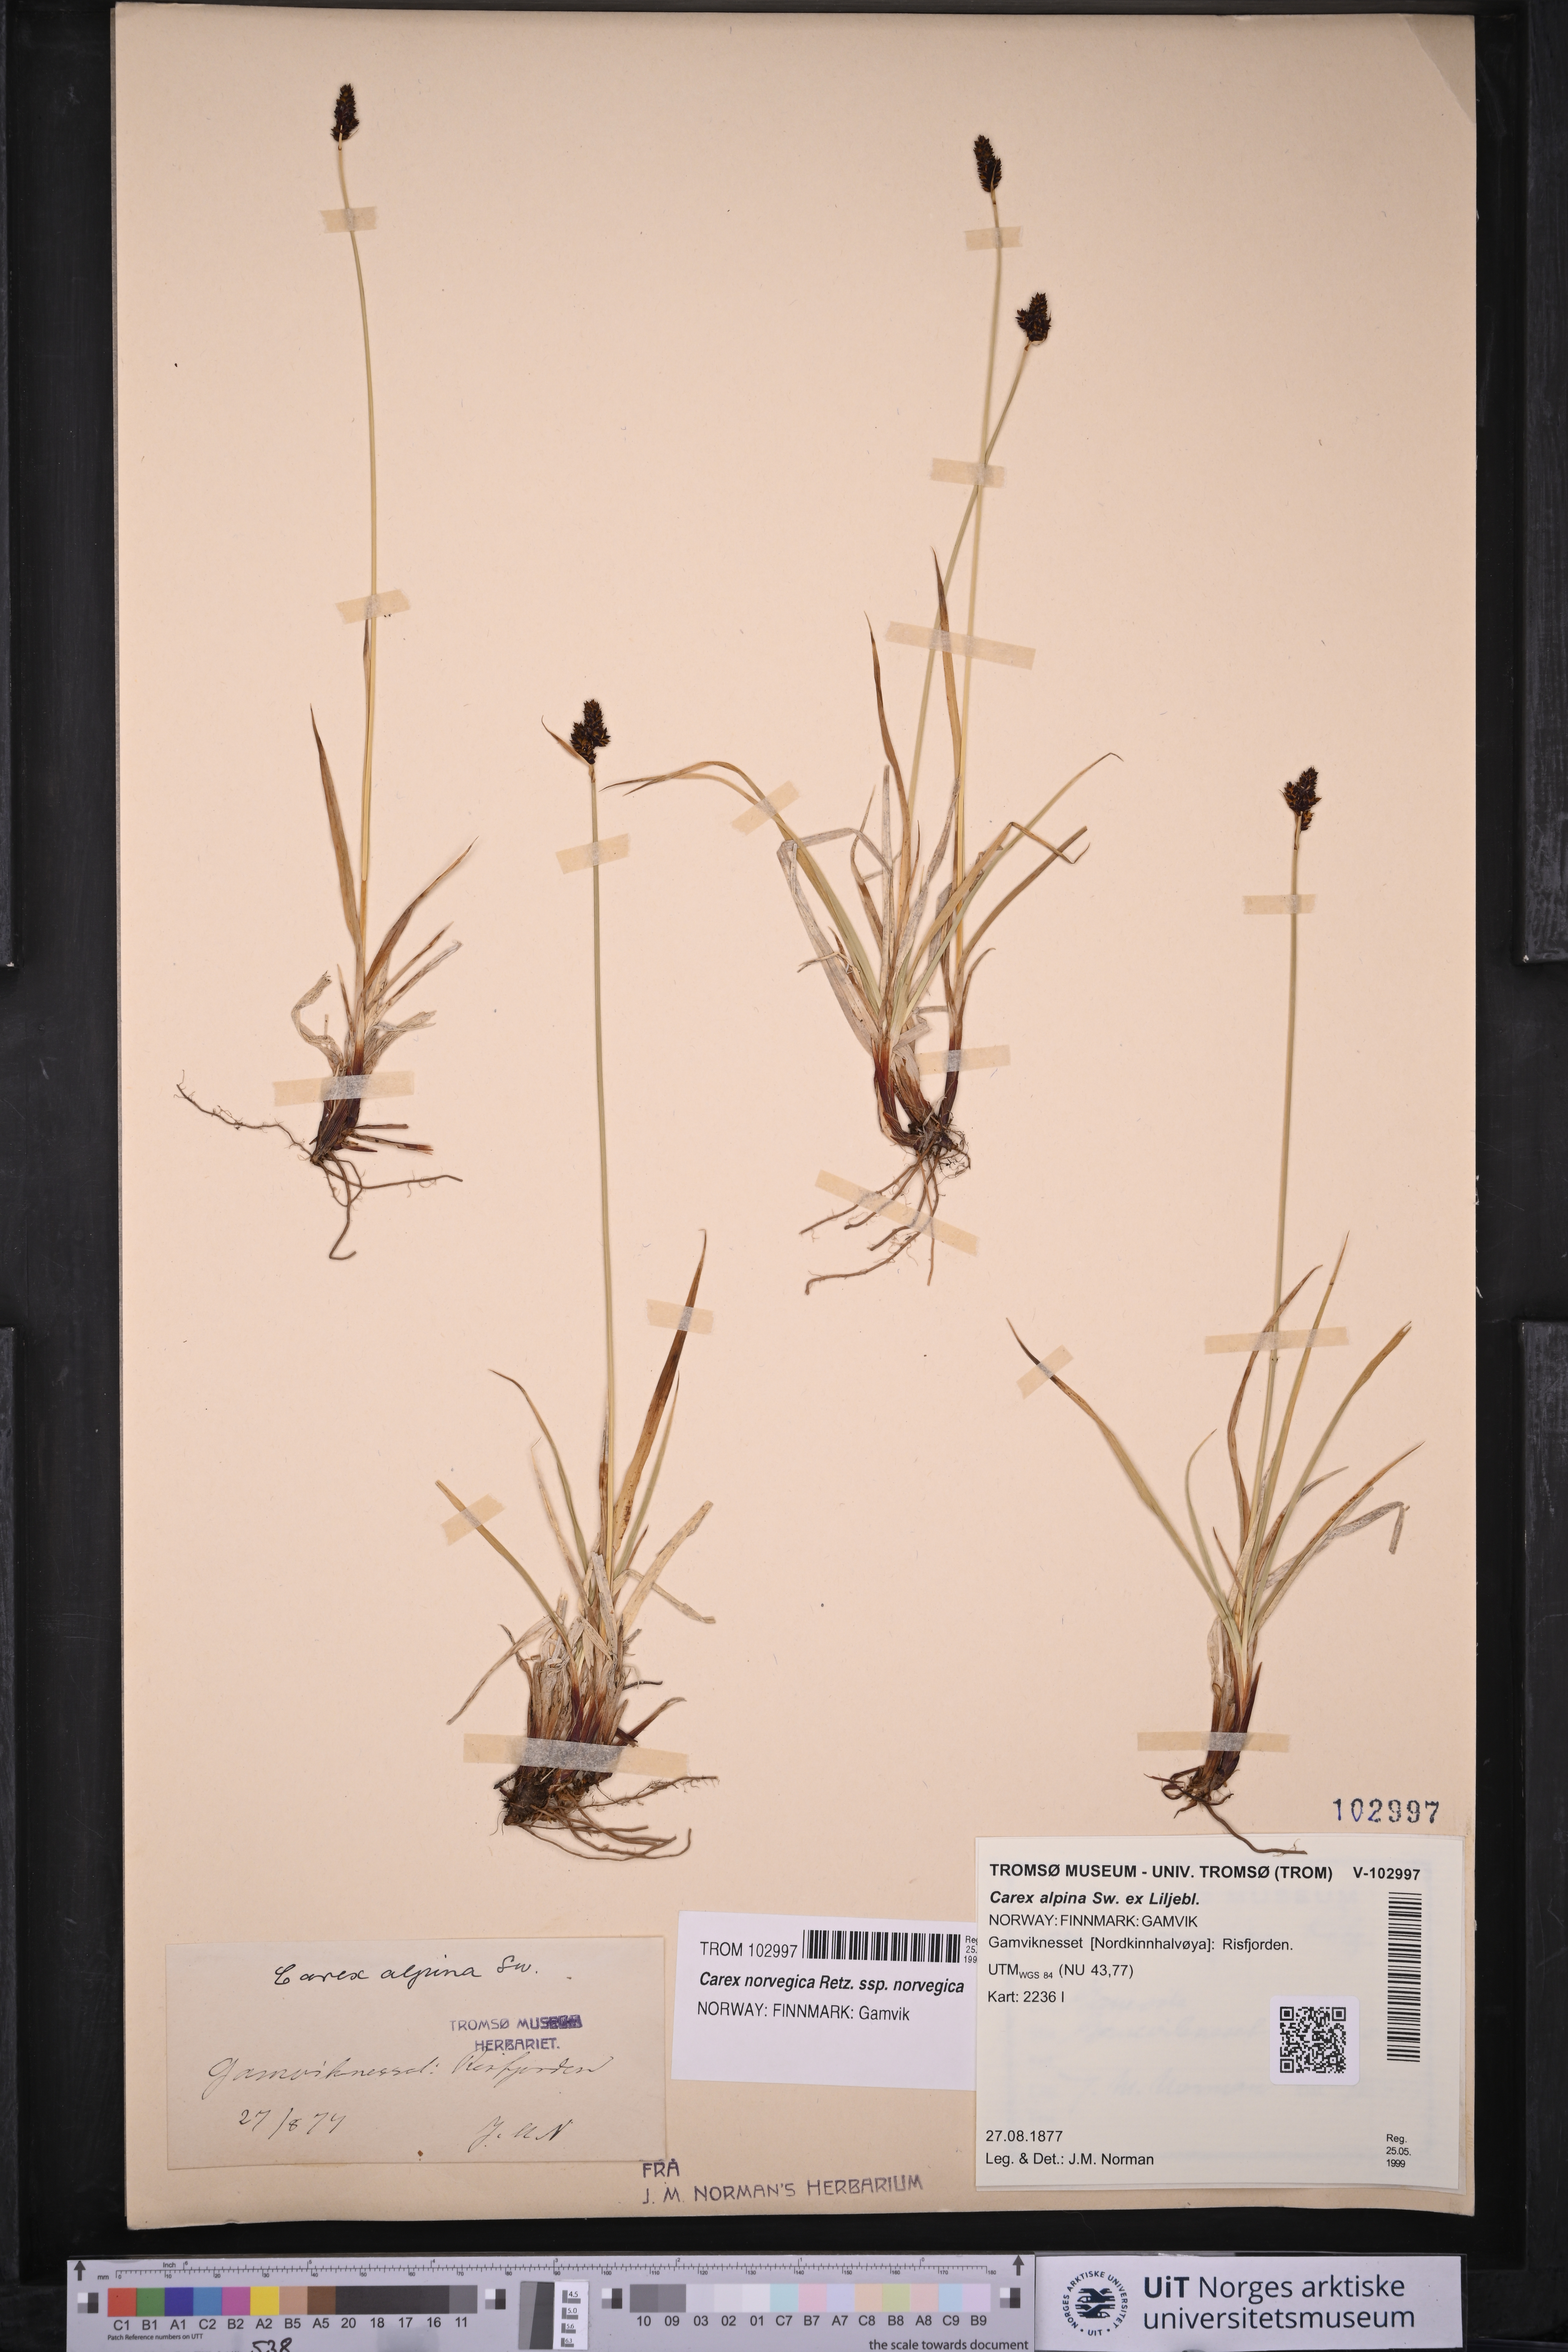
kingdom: Plantae
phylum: Tracheophyta
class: Liliopsida
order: Poales
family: Cyperaceae
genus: Carex
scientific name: Carex norvegica
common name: Close-headed alpine-sedge
